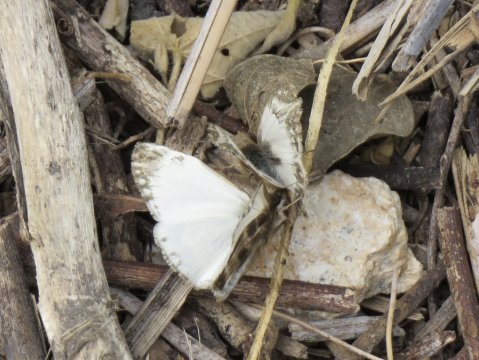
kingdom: Animalia
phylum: Arthropoda
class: Insecta
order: Lepidoptera
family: Hesperiidae
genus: Heliopetes
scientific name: Heliopetes macaira
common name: Turk's-cap White-Skipper
